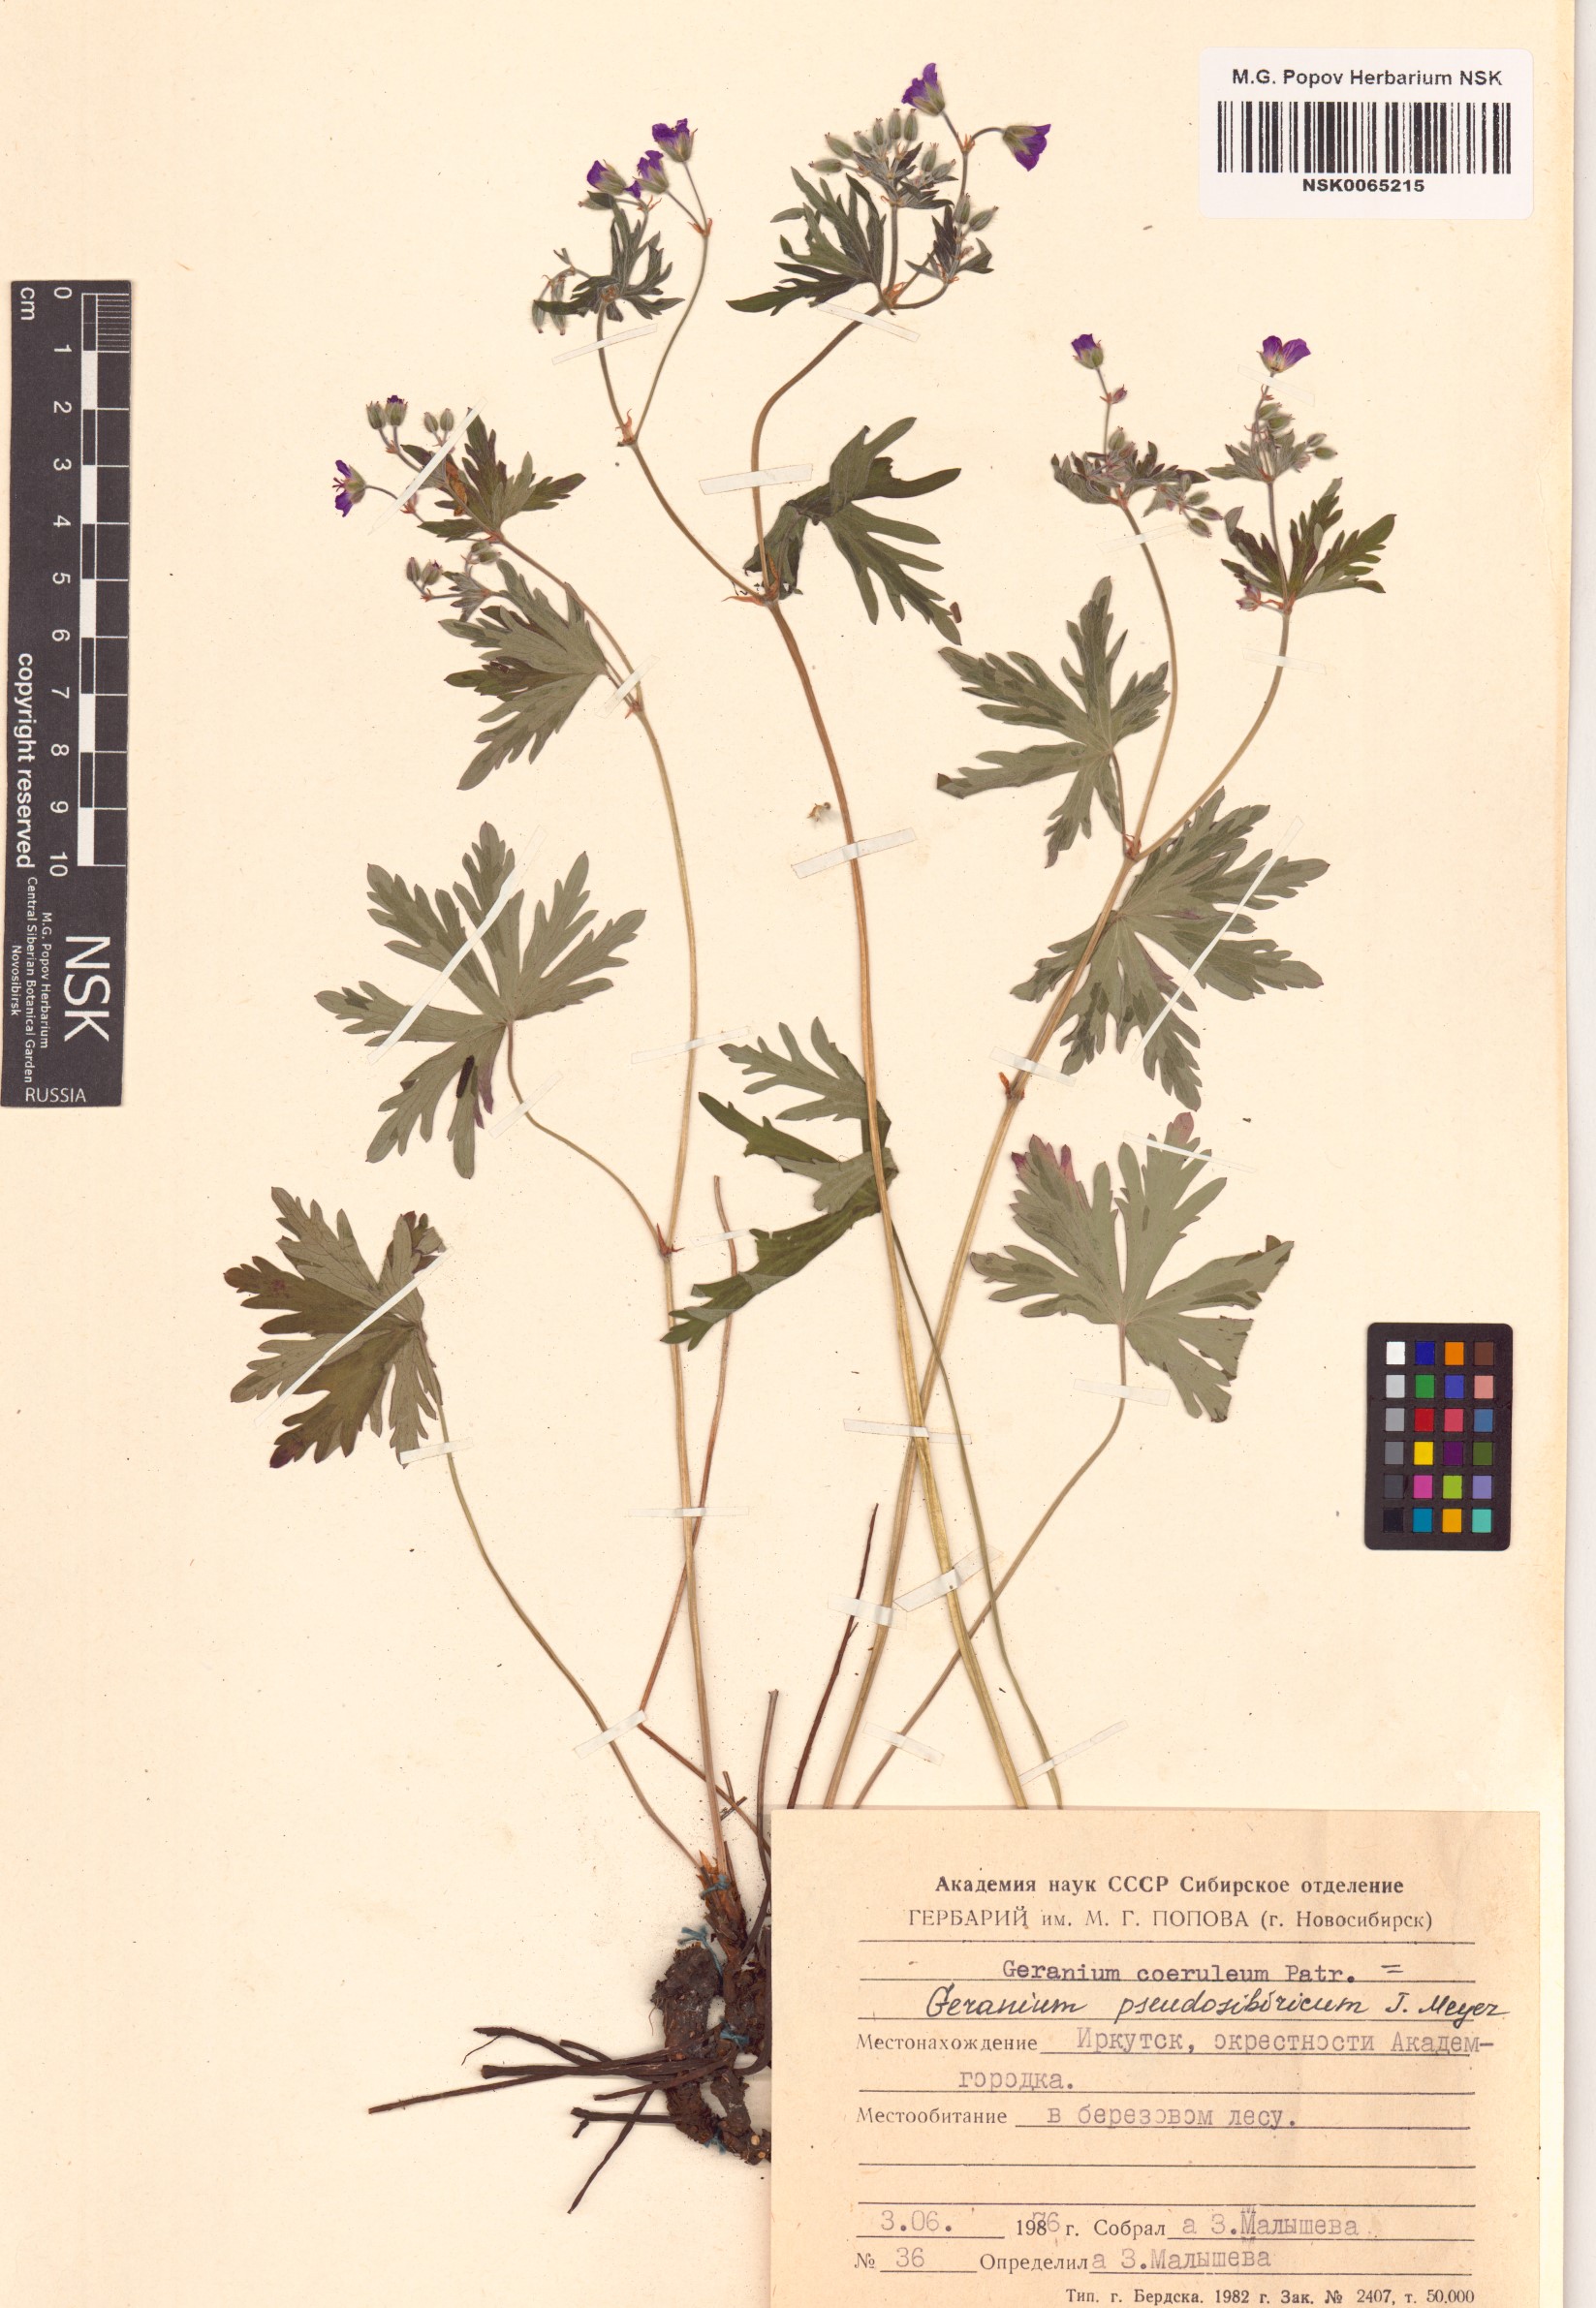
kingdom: Plantae
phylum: Tracheophyta
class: Magnoliopsida
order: Geraniales
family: Geraniaceae
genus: Geranium
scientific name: Geranium pseudosibiricum
